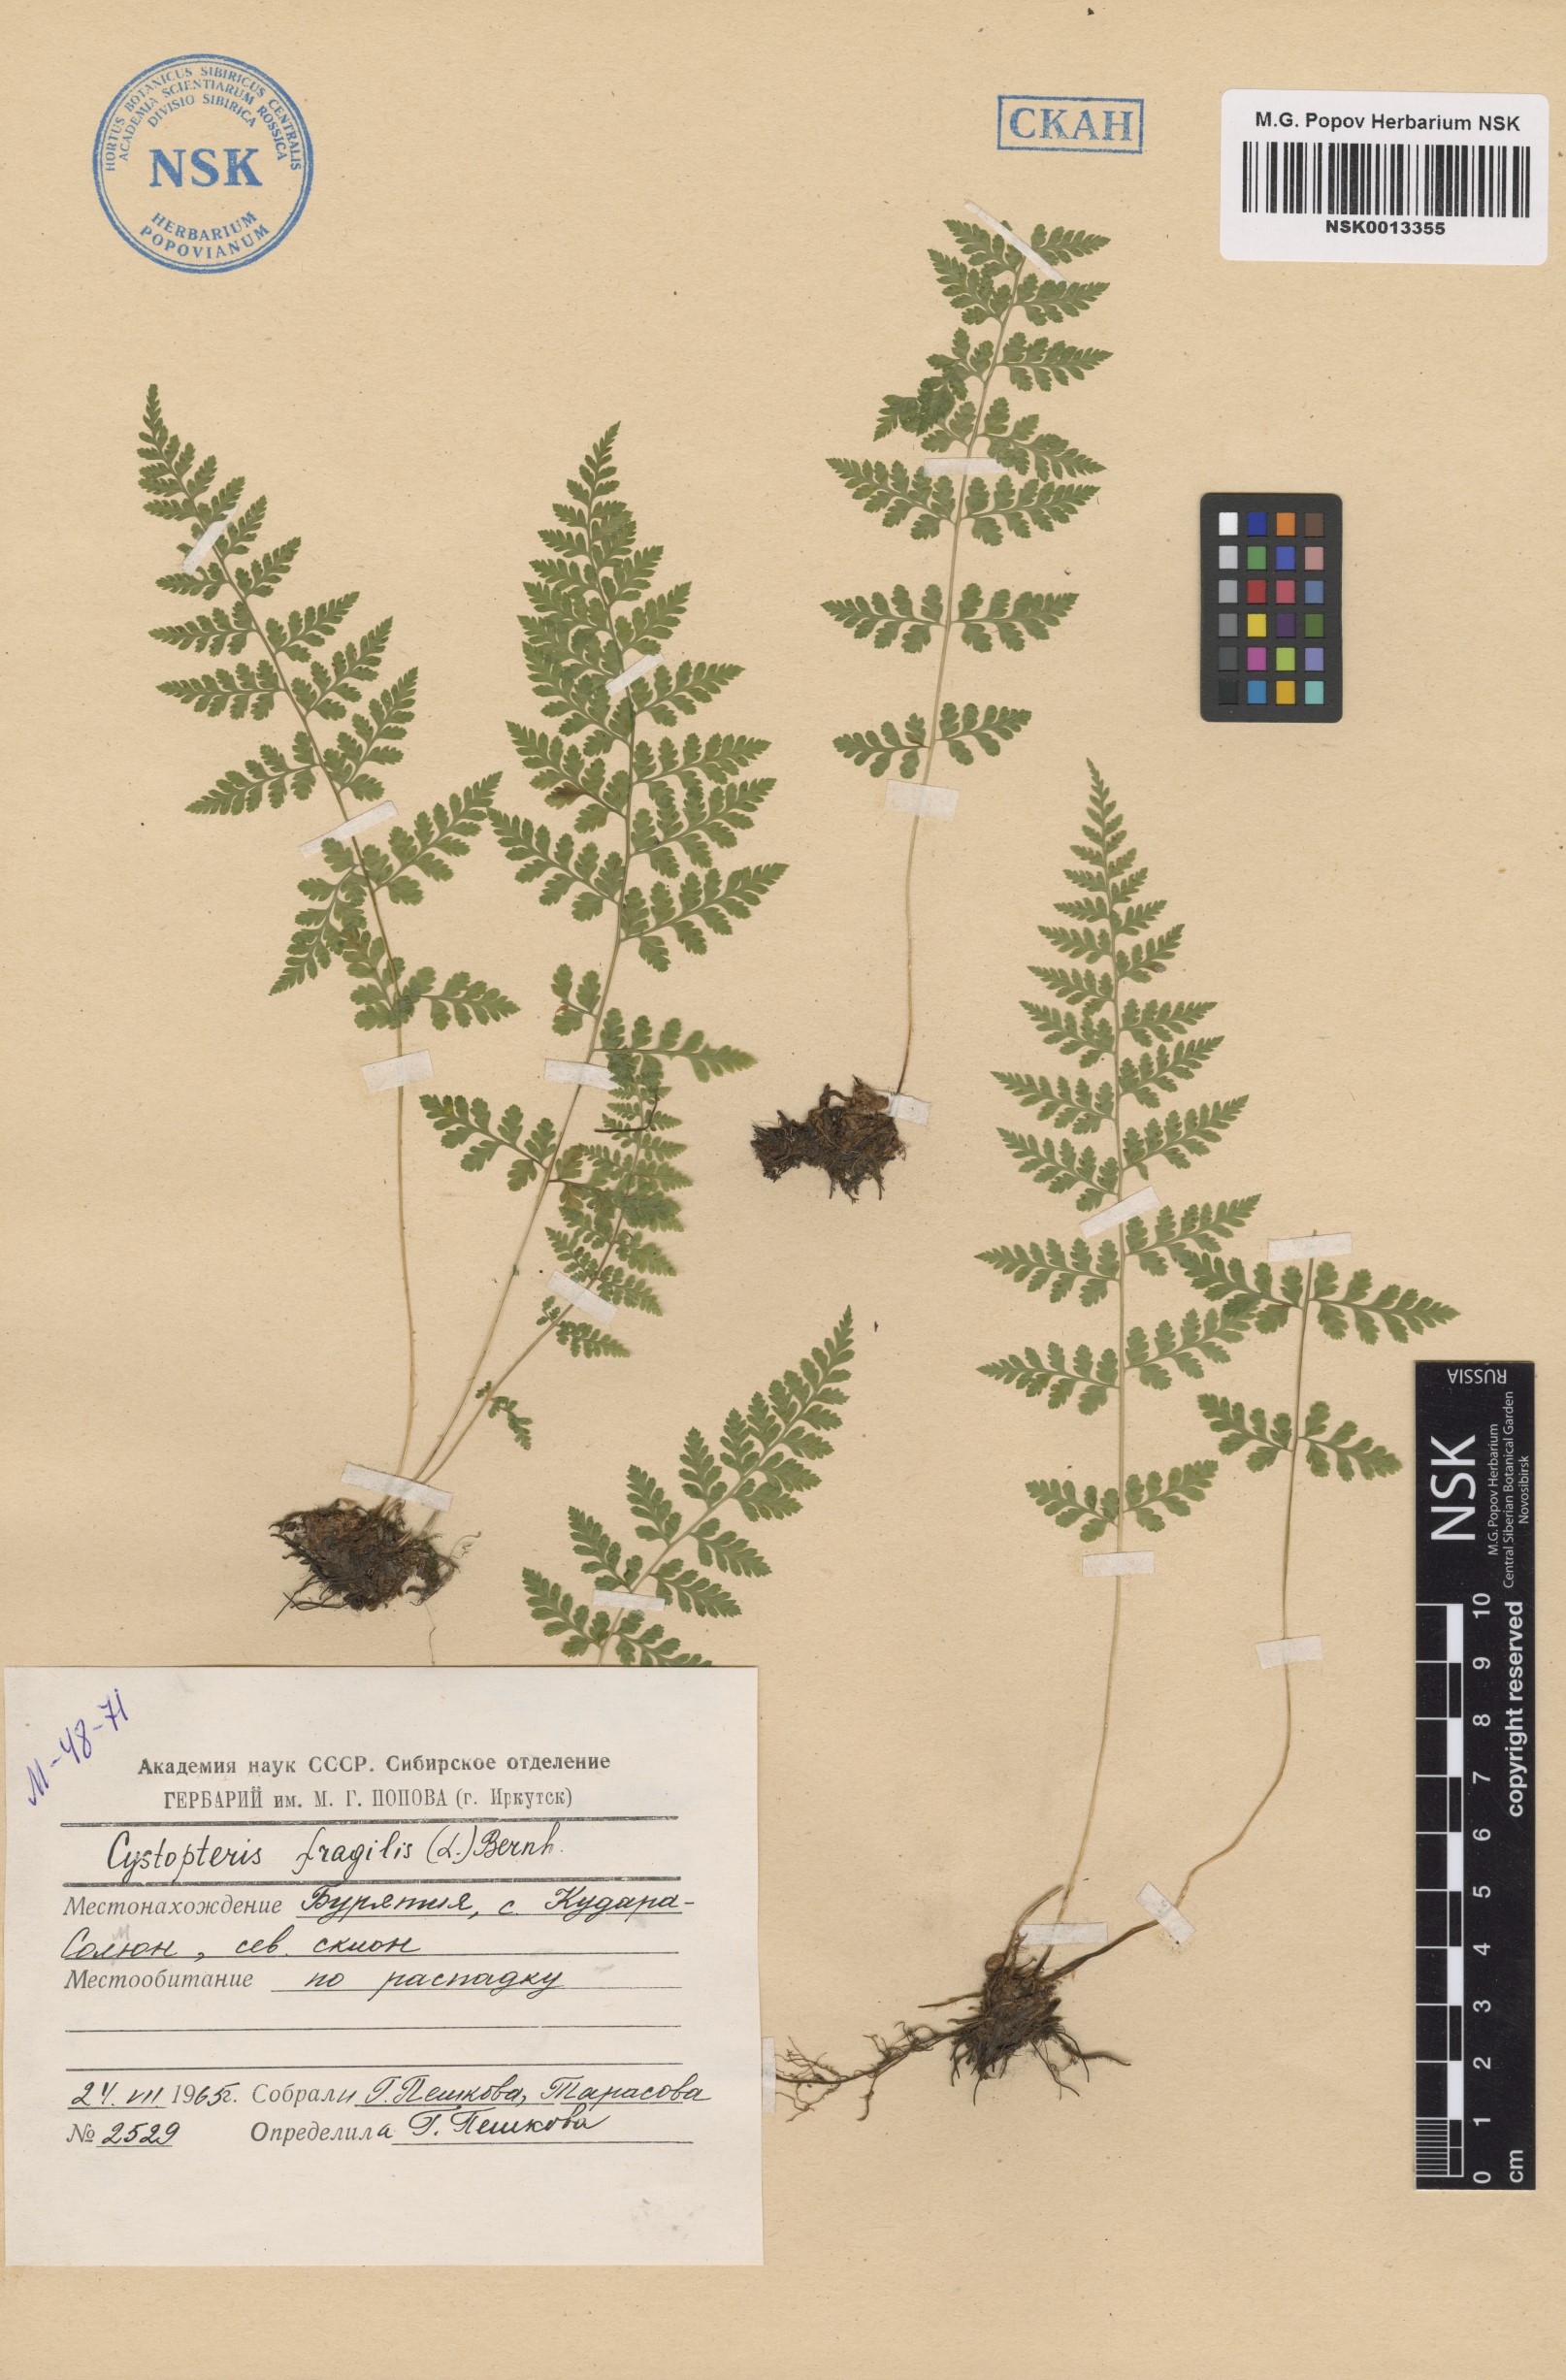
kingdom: Plantae
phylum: Tracheophyta
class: Polypodiopsida
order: Polypodiales
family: Cystopteridaceae
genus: Cystopteris
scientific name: Cystopteris fragilis
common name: Brittle bladder fern
